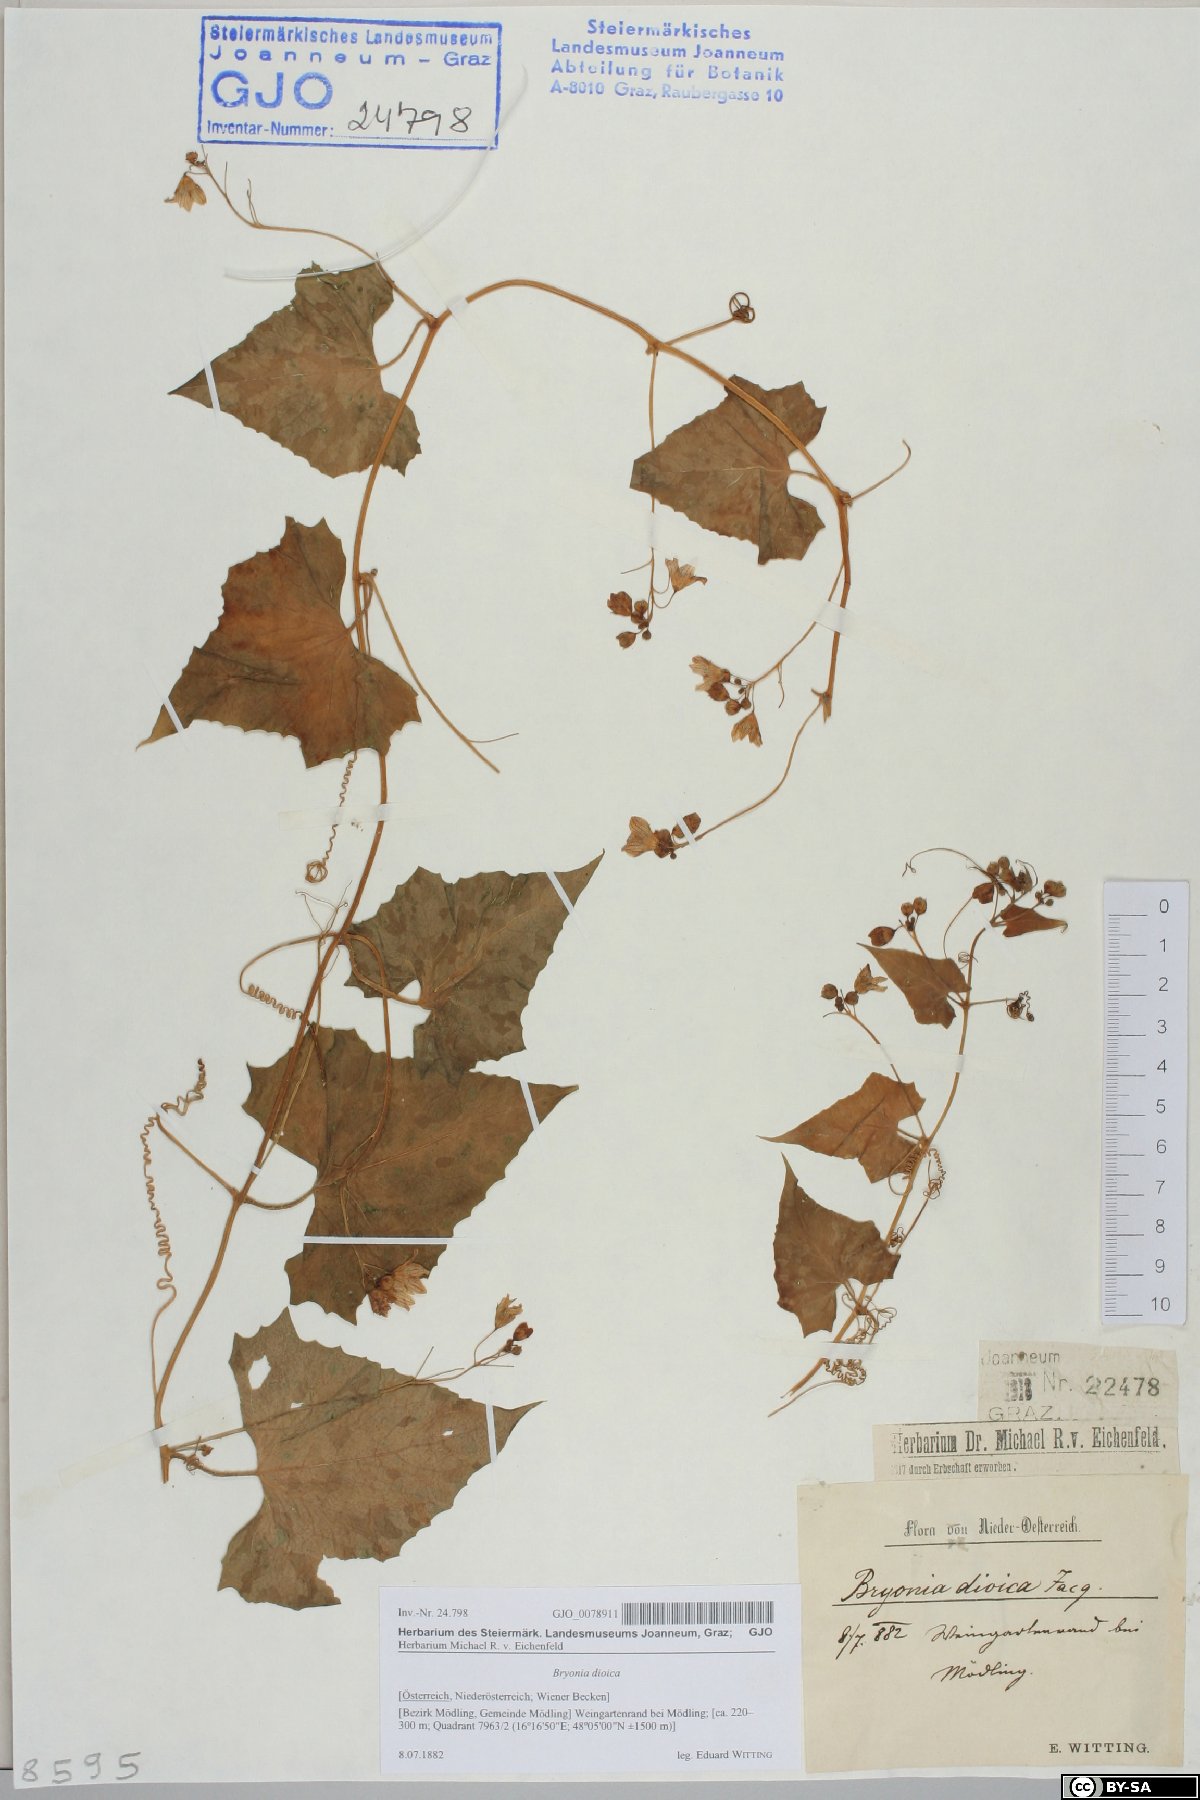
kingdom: Plantae
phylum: Tracheophyta
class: Magnoliopsida
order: Cucurbitales
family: Cucurbitaceae
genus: Bryonia
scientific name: Bryonia dioica
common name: White bryony
